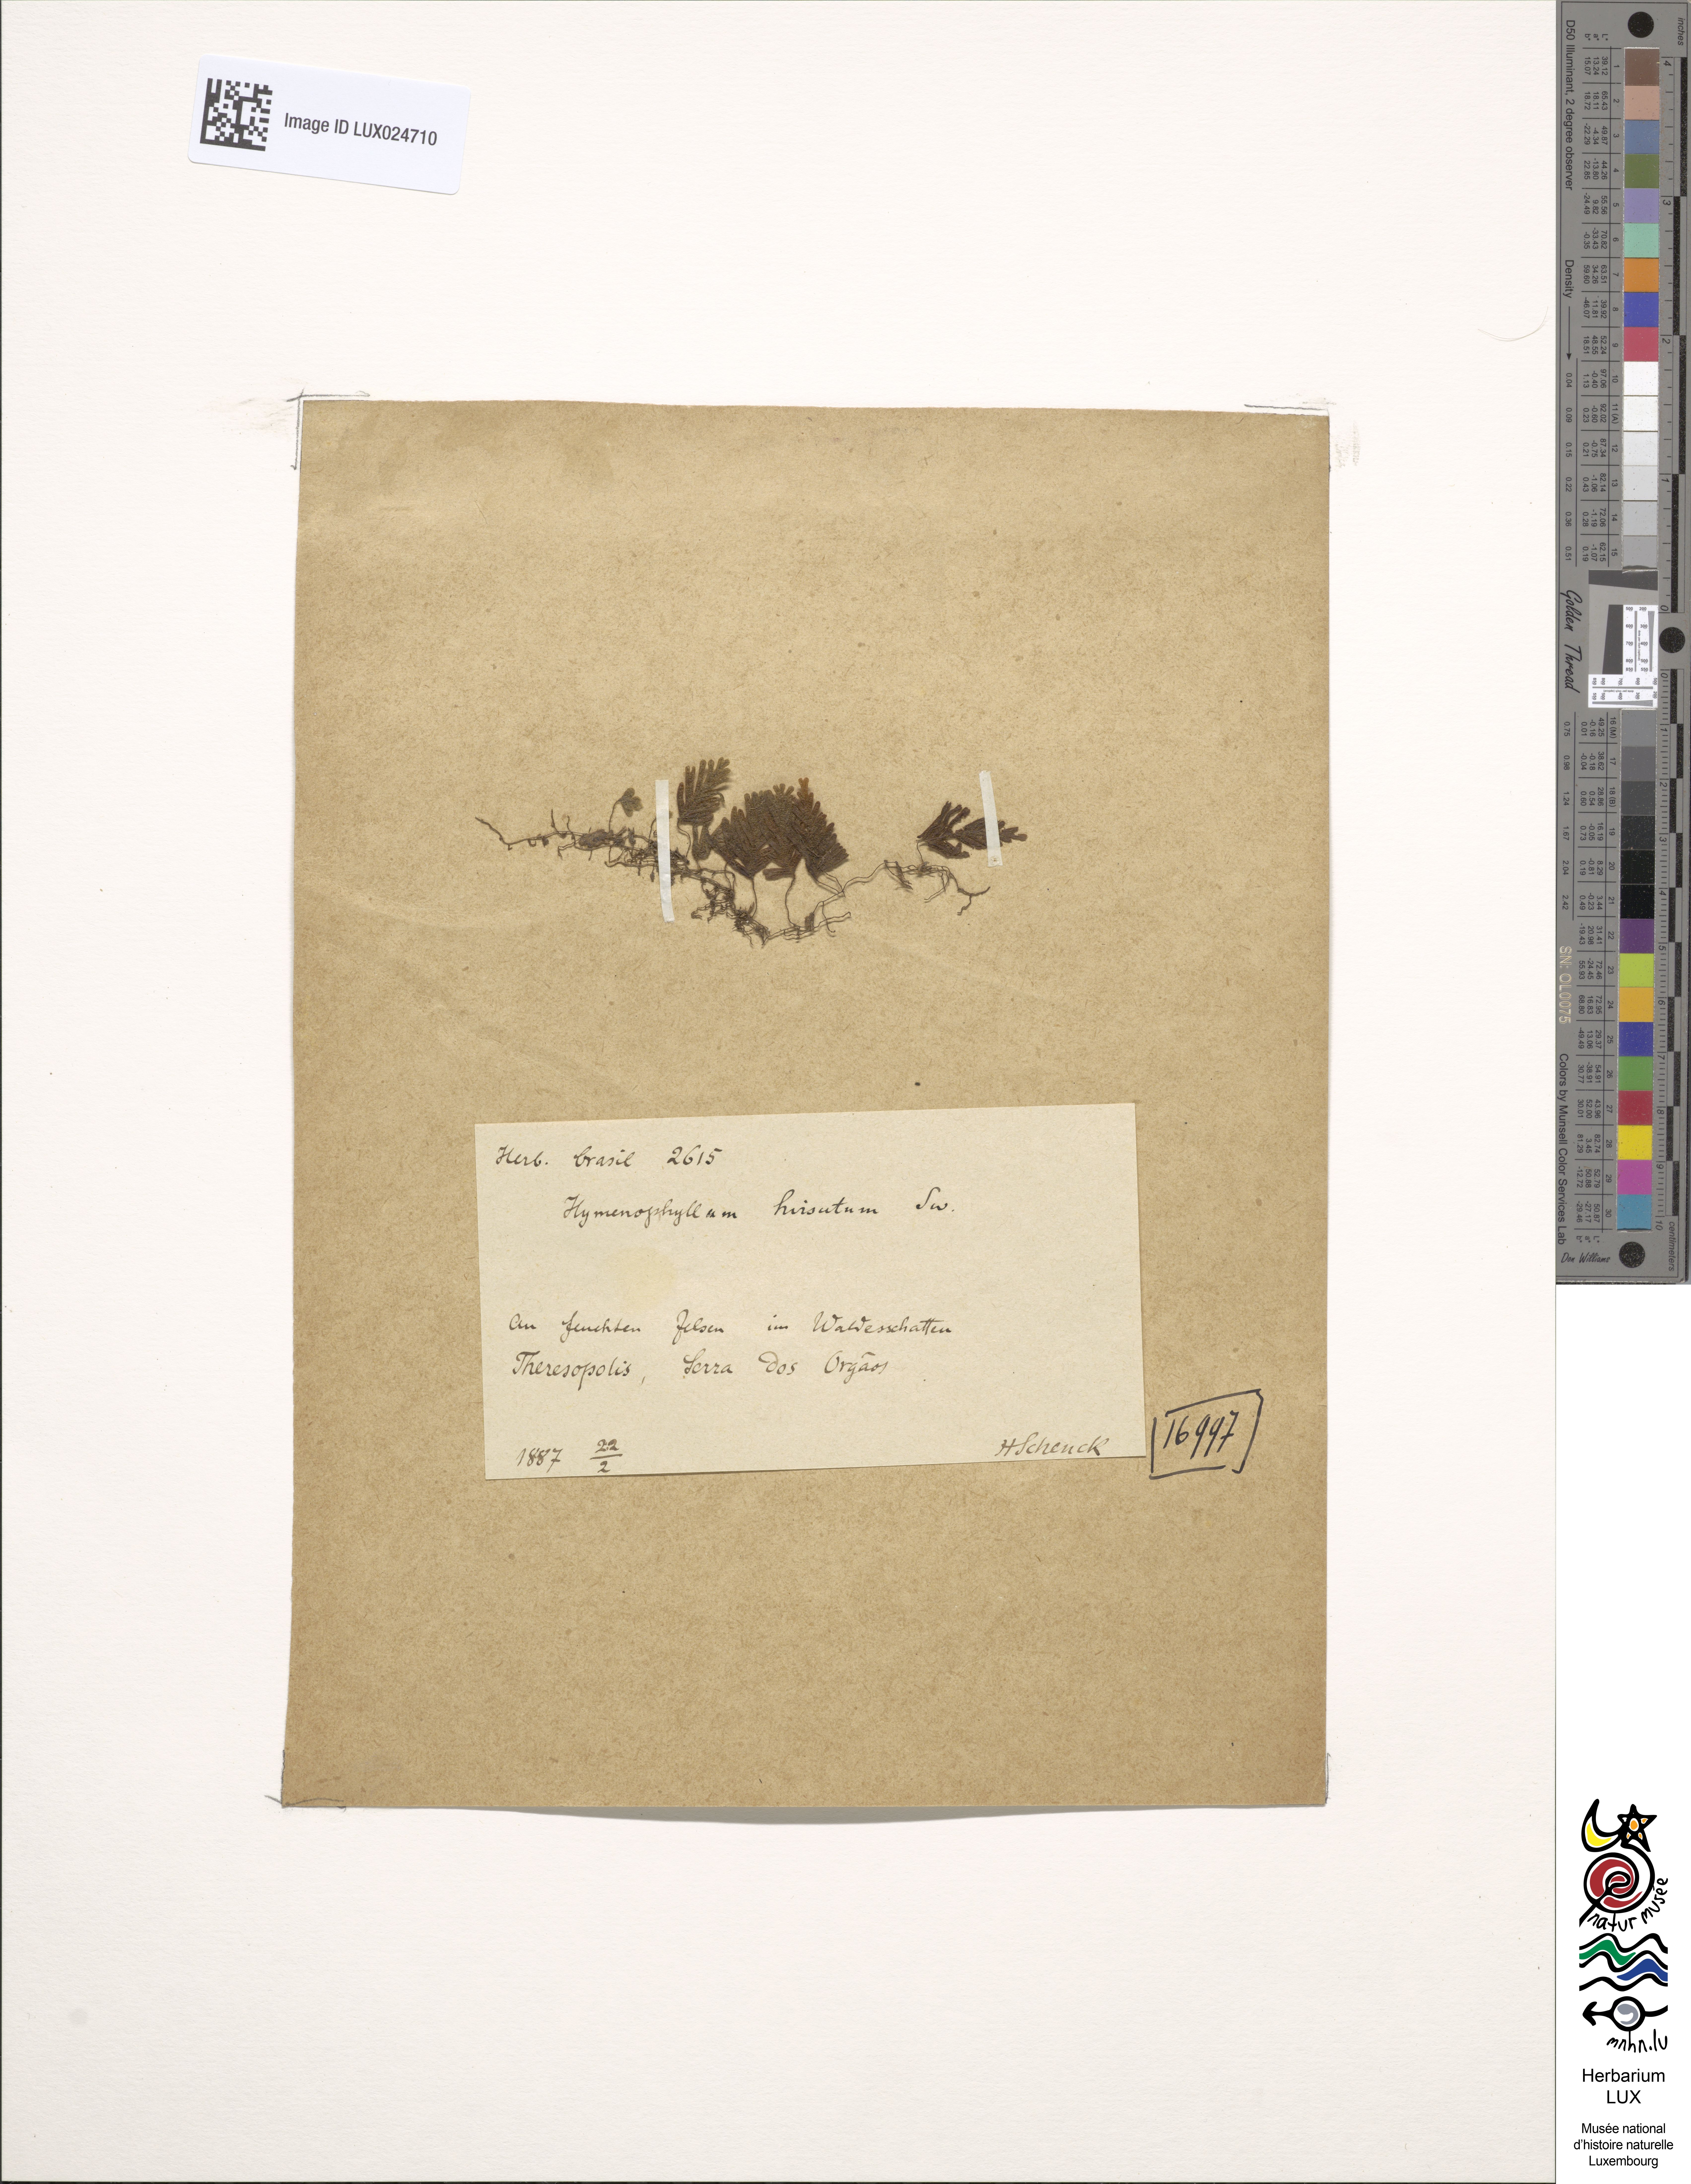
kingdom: Plantae
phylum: Tracheophyta
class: Polypodiopsida
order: Hymenophyllales
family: Hymenophyllaceae
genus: Hymenophyllum
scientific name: Hymenophyllum hirsutum
